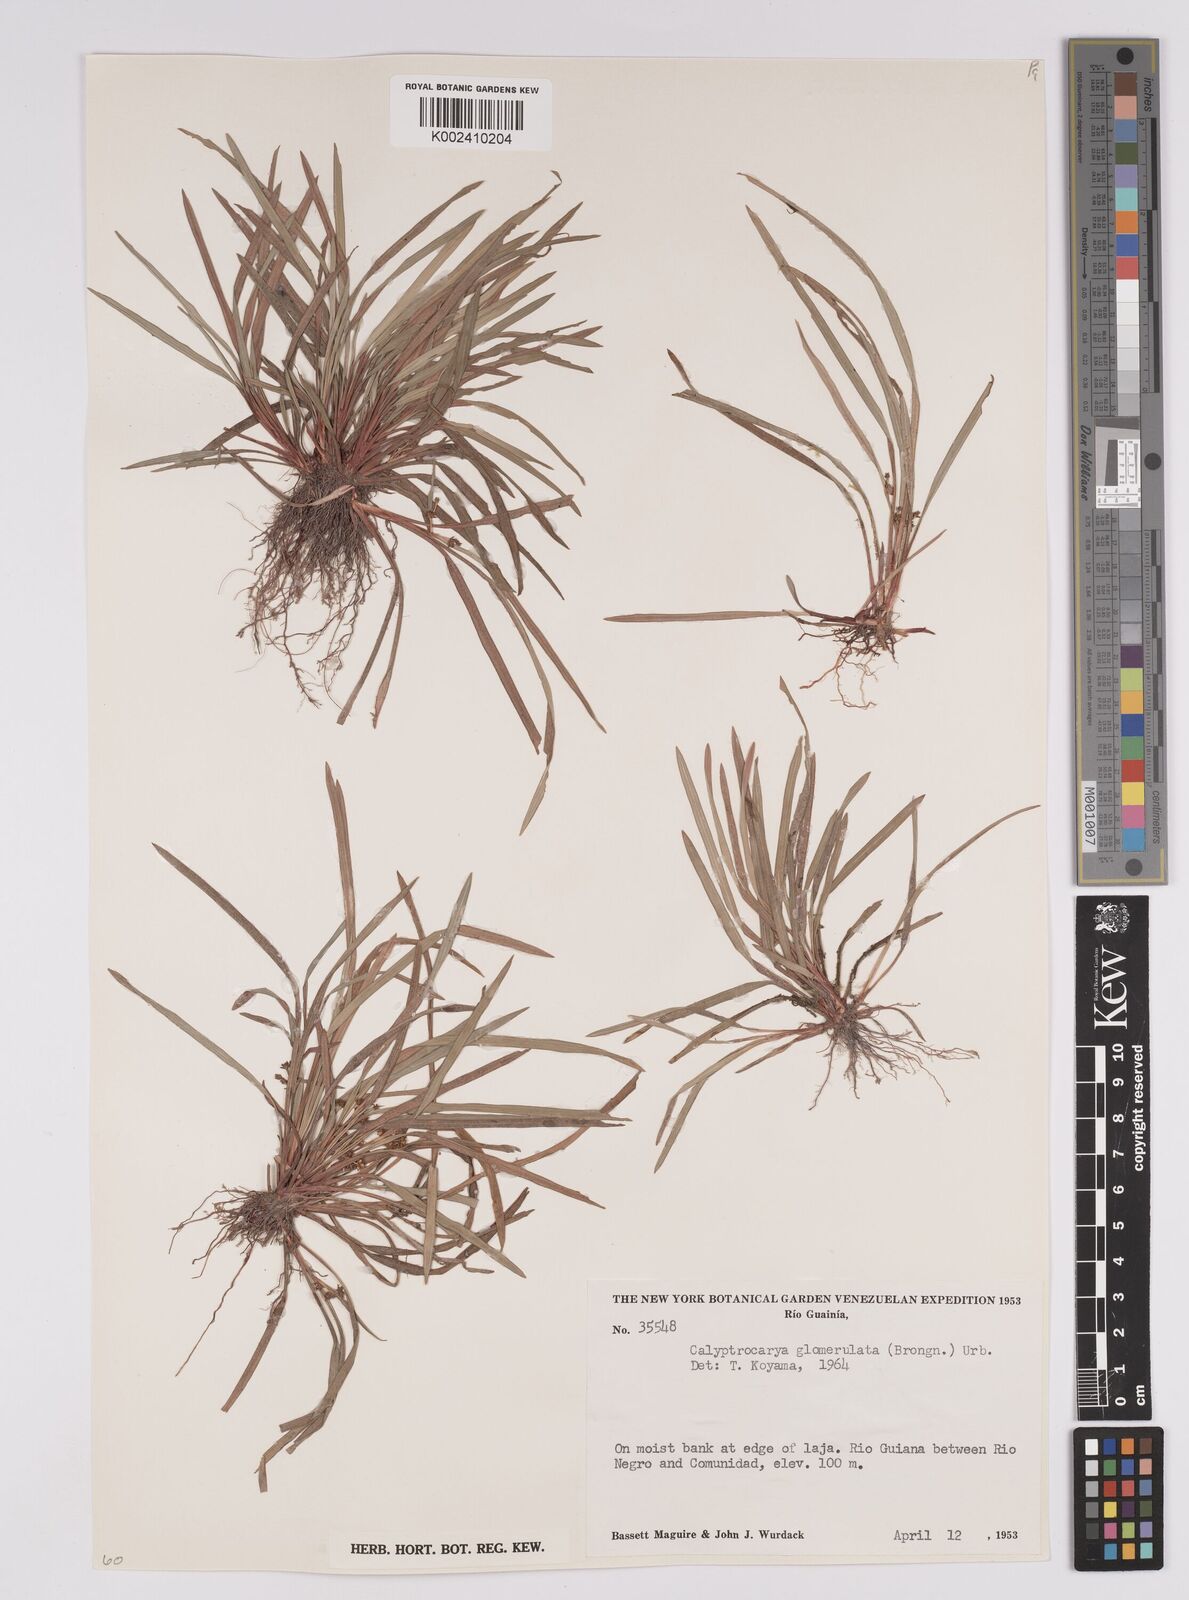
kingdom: Plantae
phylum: Tracheophyta
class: Liliopsida
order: Poales
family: Cyperaceae
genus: Calyptrocarya
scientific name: Calyptrocarya glomerulata
